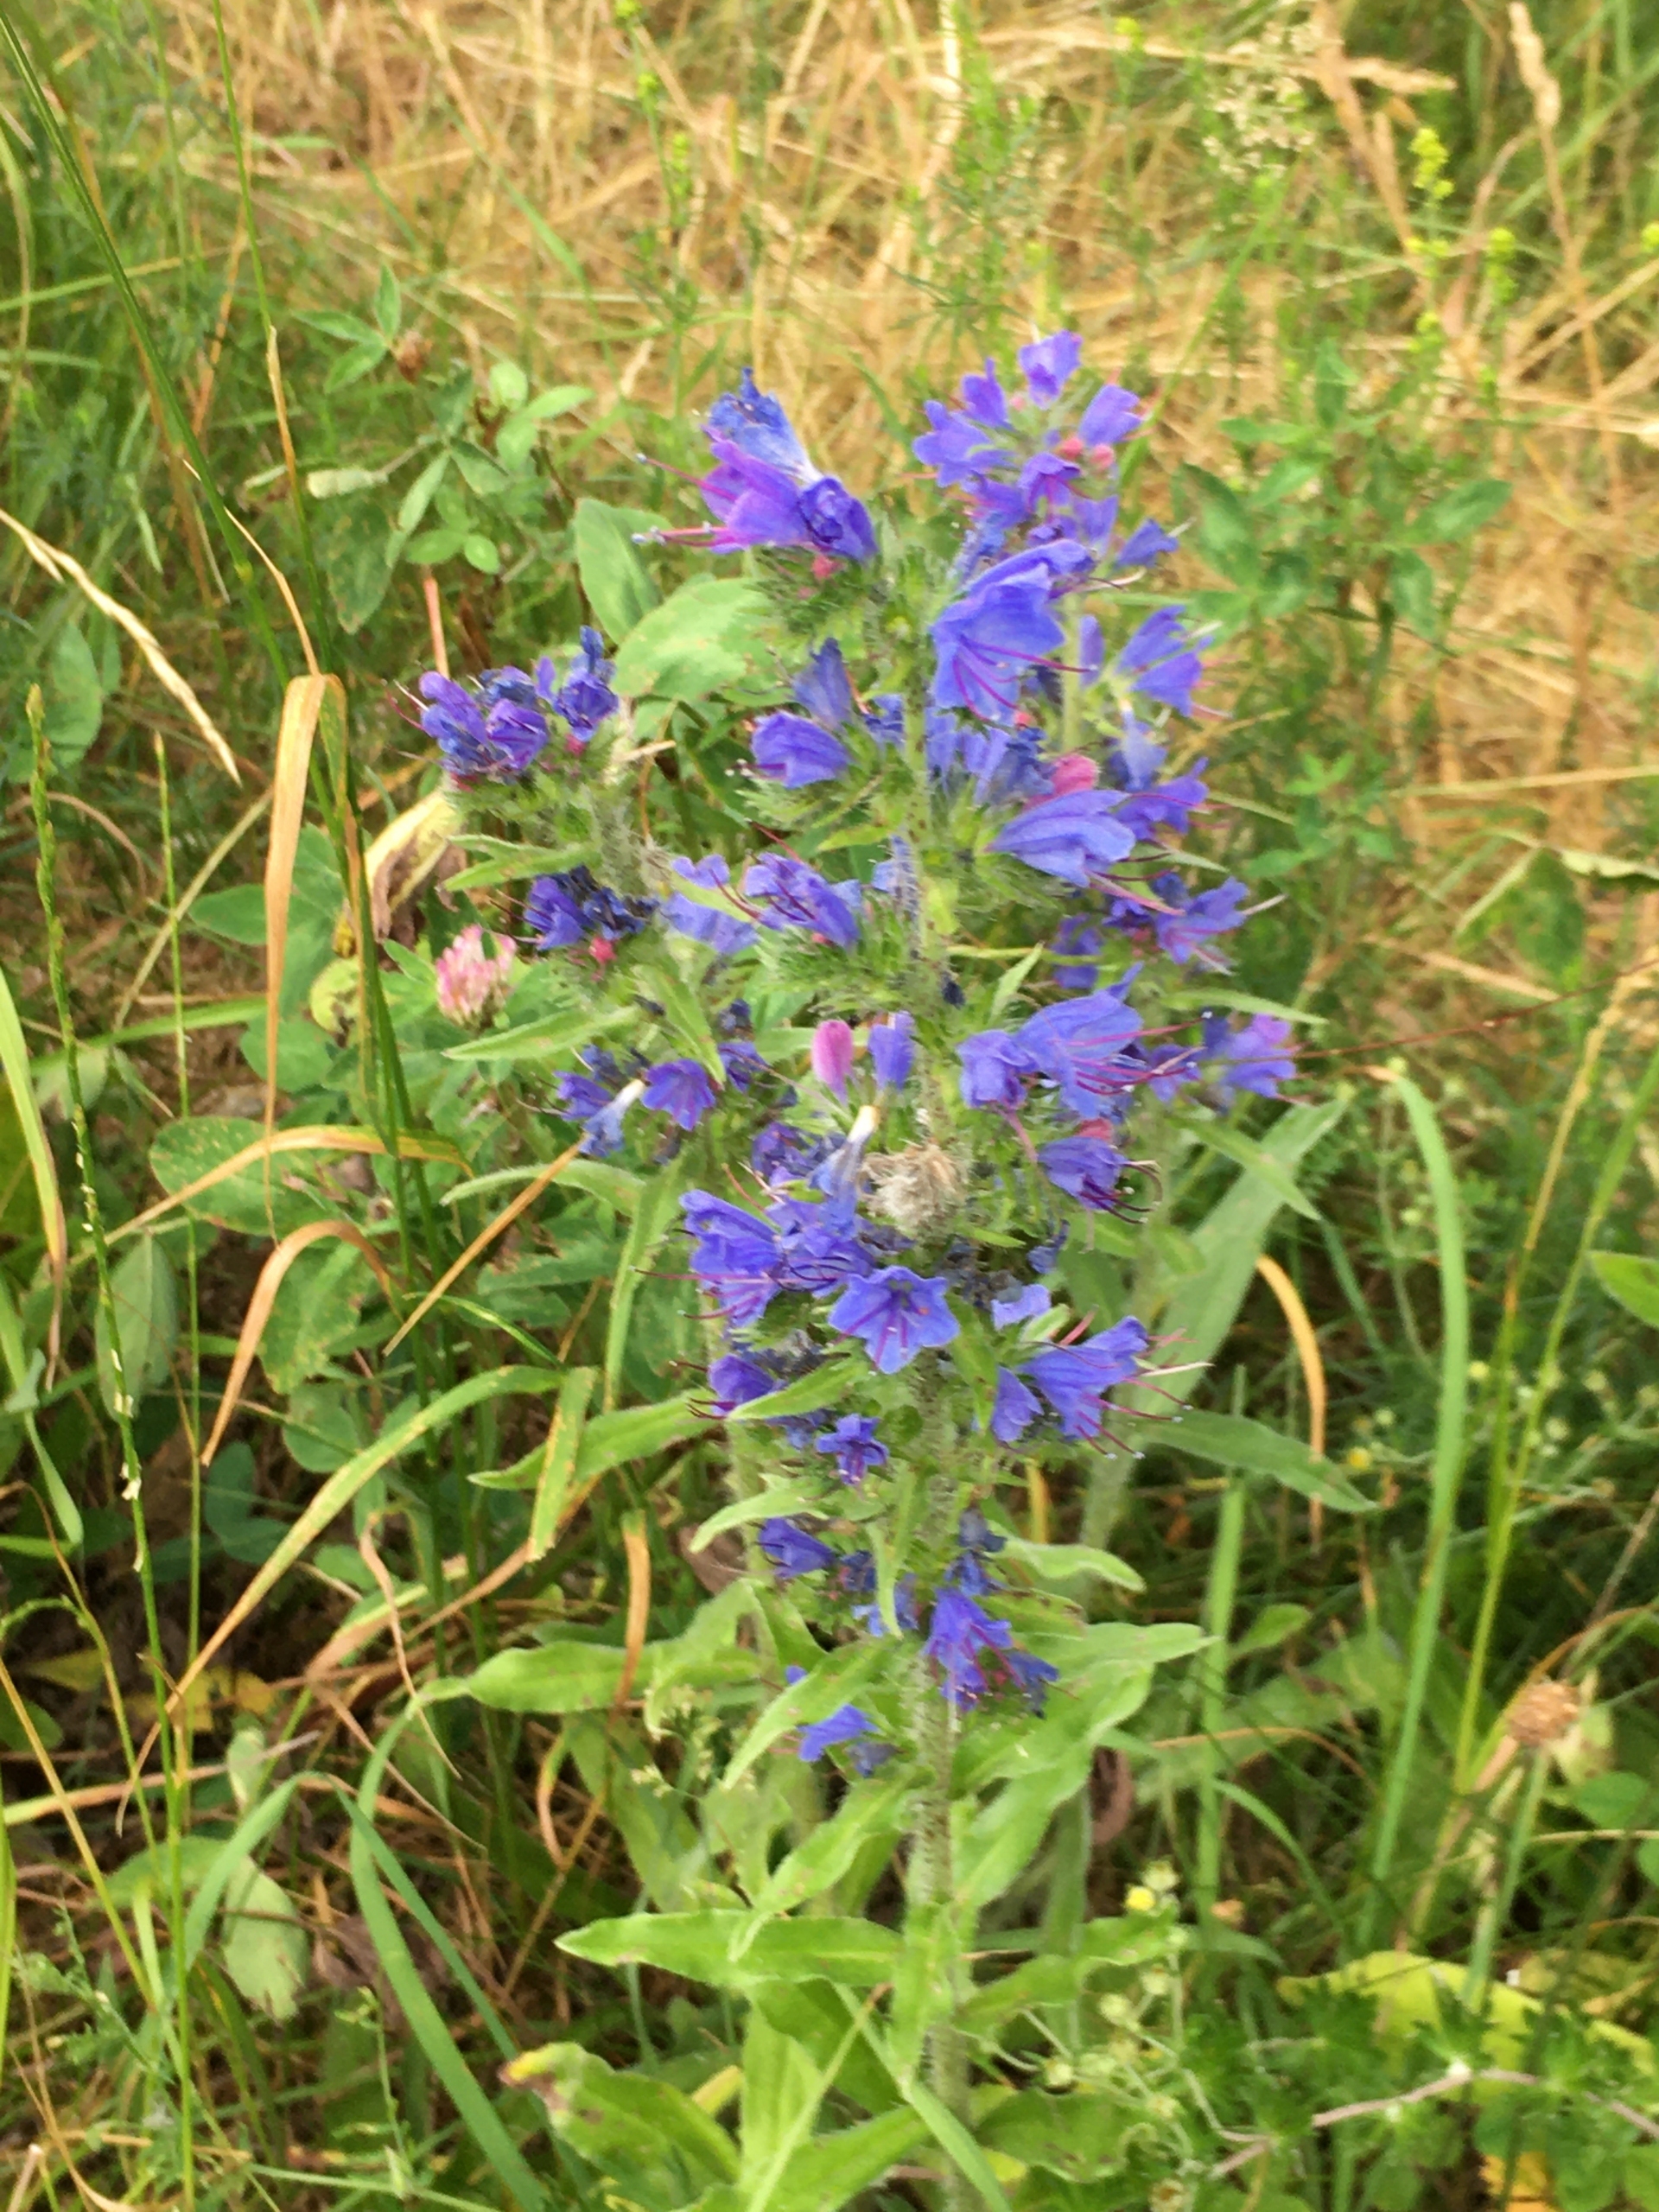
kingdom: Plantae
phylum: Tracheophyta
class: Magnoliopsida
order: Boraginales
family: Boraginaceae
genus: Echium
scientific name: Echium vulgare
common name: Slangehoved
